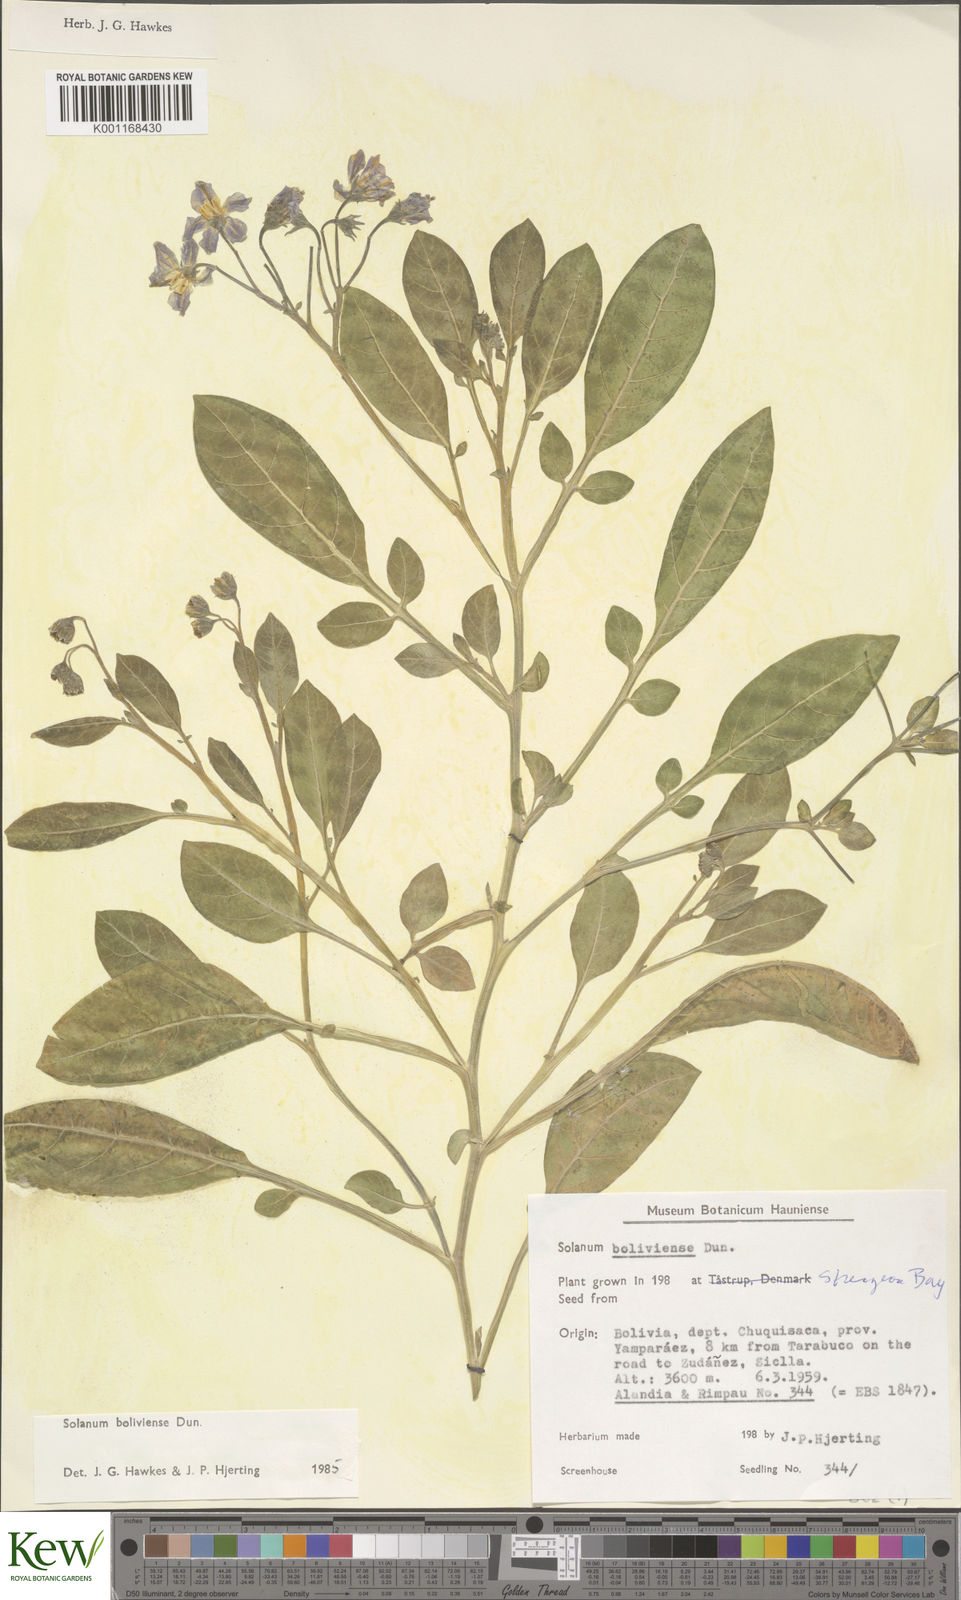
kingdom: Plantae
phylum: Tracheophyta
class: Magnoliopsida
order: Solanales
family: Solanaceae
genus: Solanum
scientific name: Solanum boliviense
